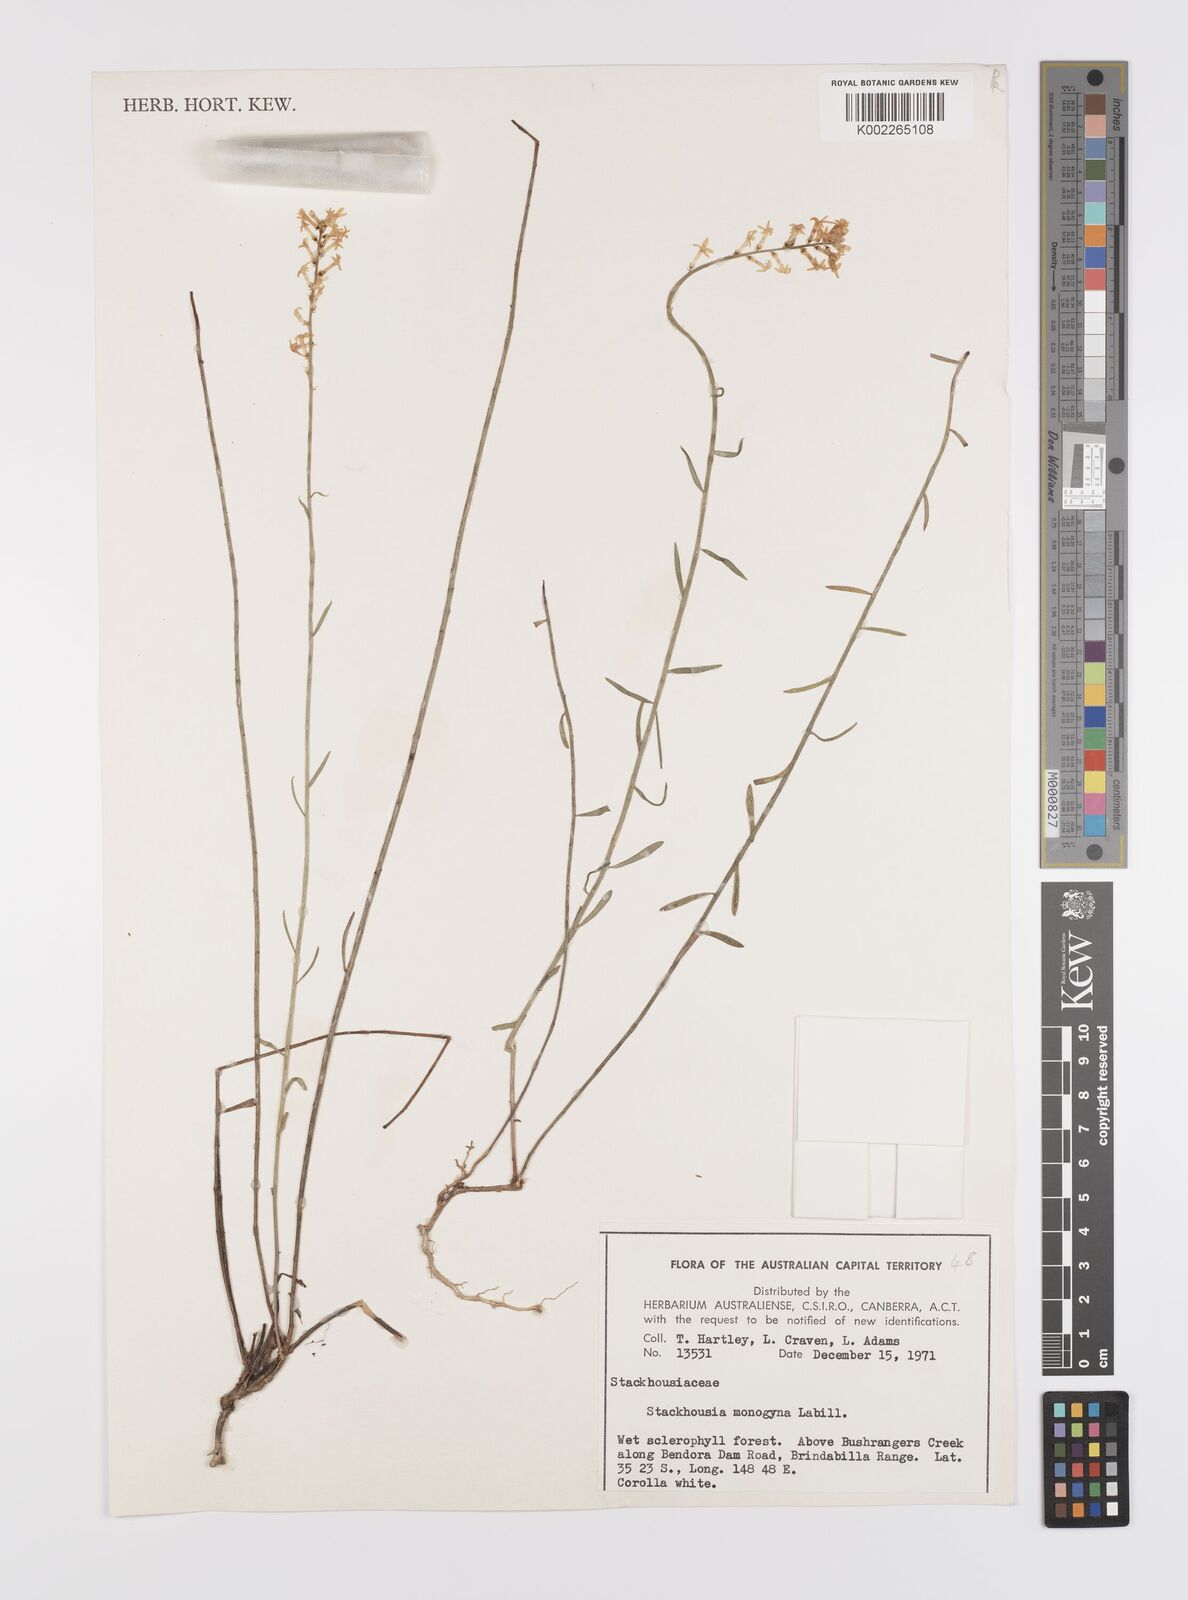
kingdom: Plantae
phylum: Tracheophyta
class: Magnoliopsida
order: Celastrales
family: Celastraceae
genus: Stackhousia
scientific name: Stackhousia monogyna
